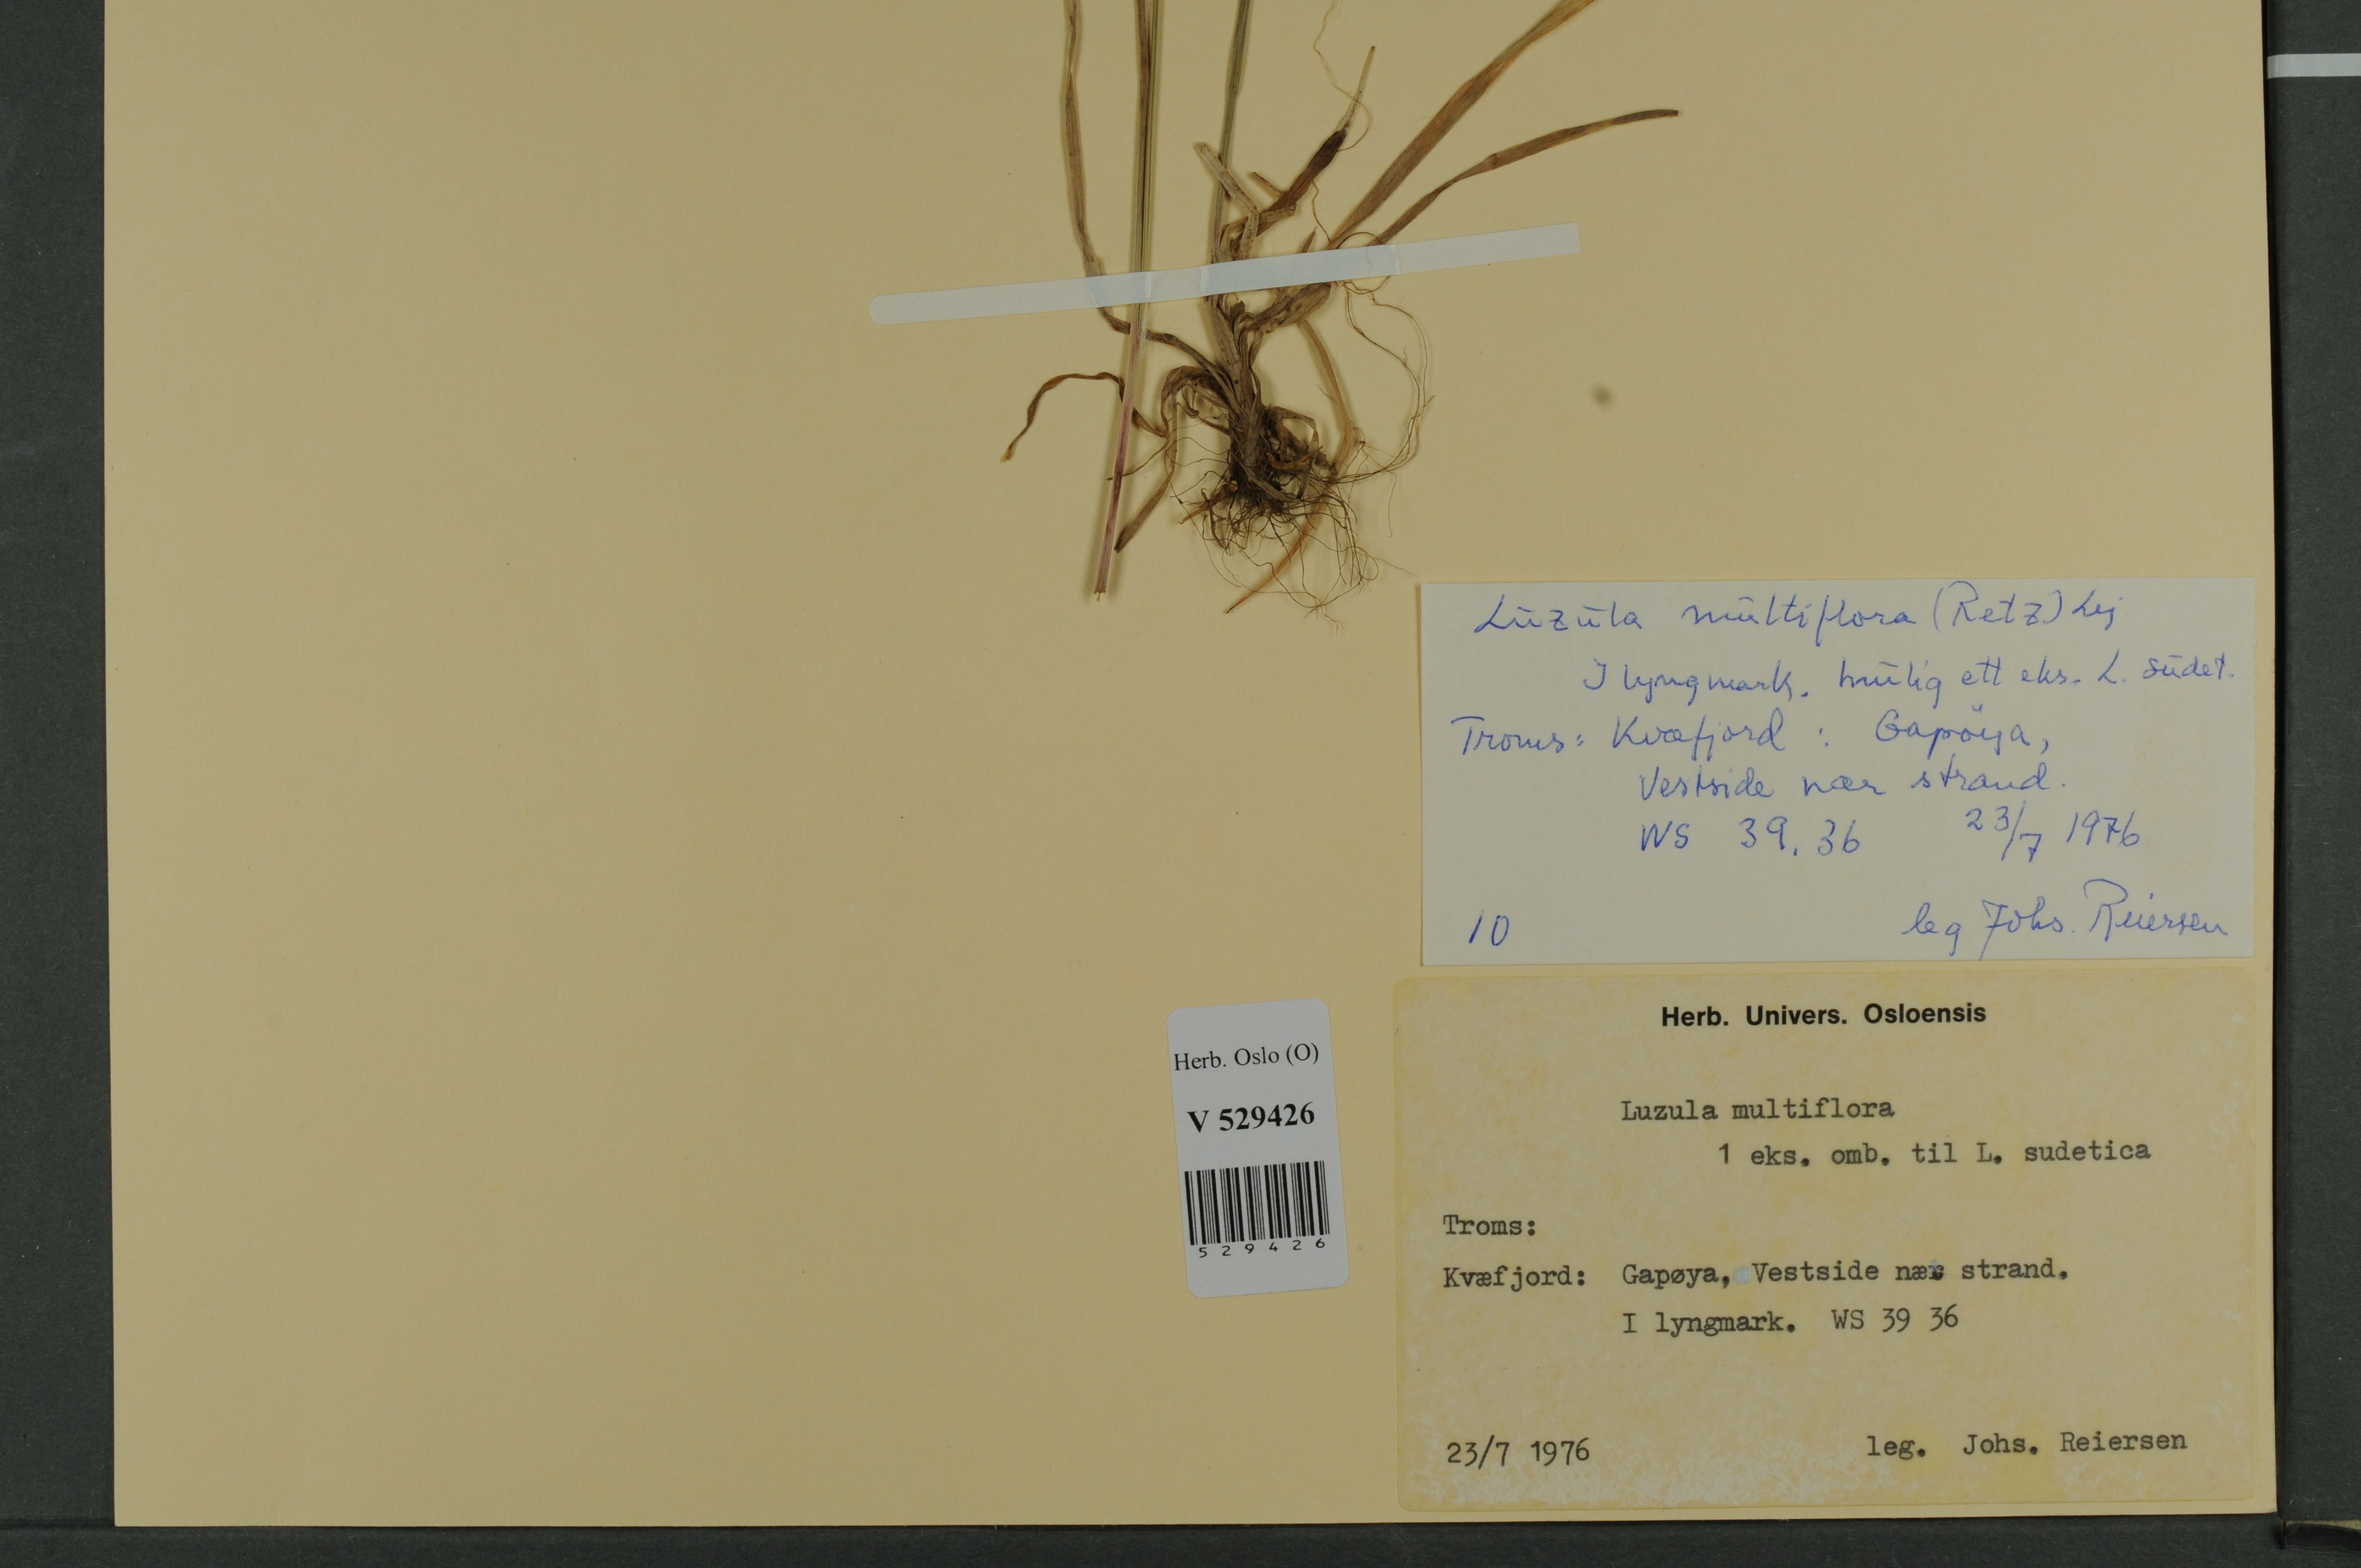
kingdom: Plantae
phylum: Tracheophyta
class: Liliopsida
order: Poales
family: Juncaceae
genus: Luzula
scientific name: Luzula multiflora
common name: Heath wood-rush
